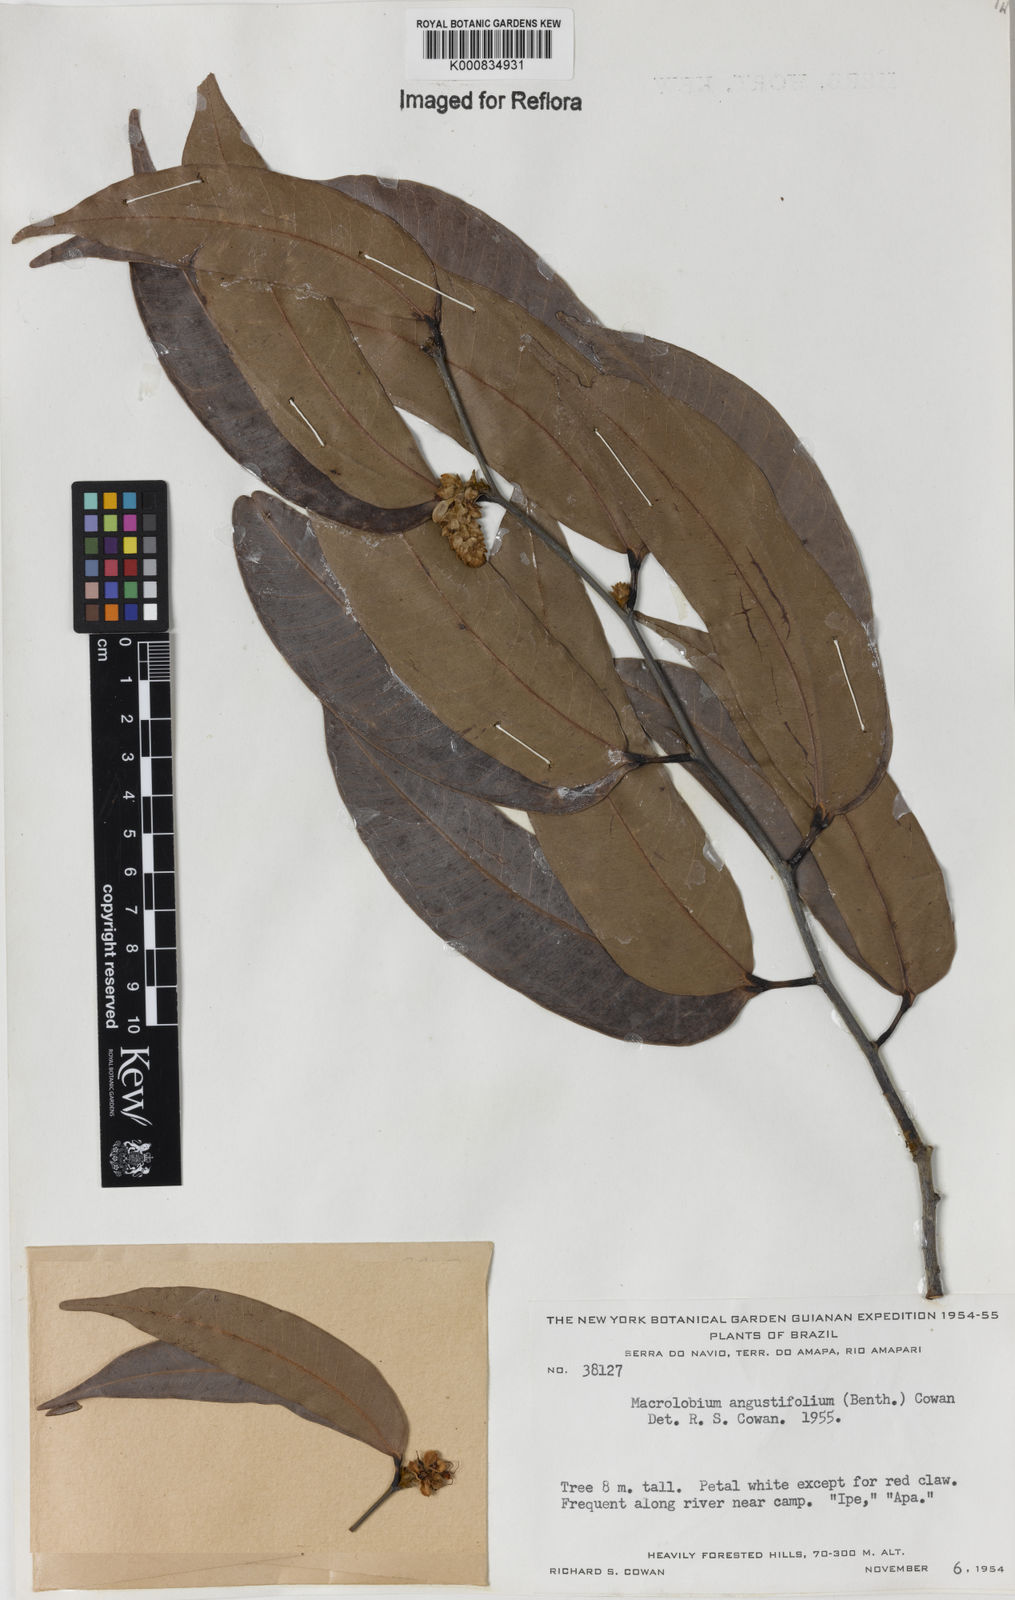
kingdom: Plantae
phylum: Tracheophyta
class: Magnoliopsida
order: Fabales
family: Fabaceae
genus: Macrolobium
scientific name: Macrolobium angustifolium
